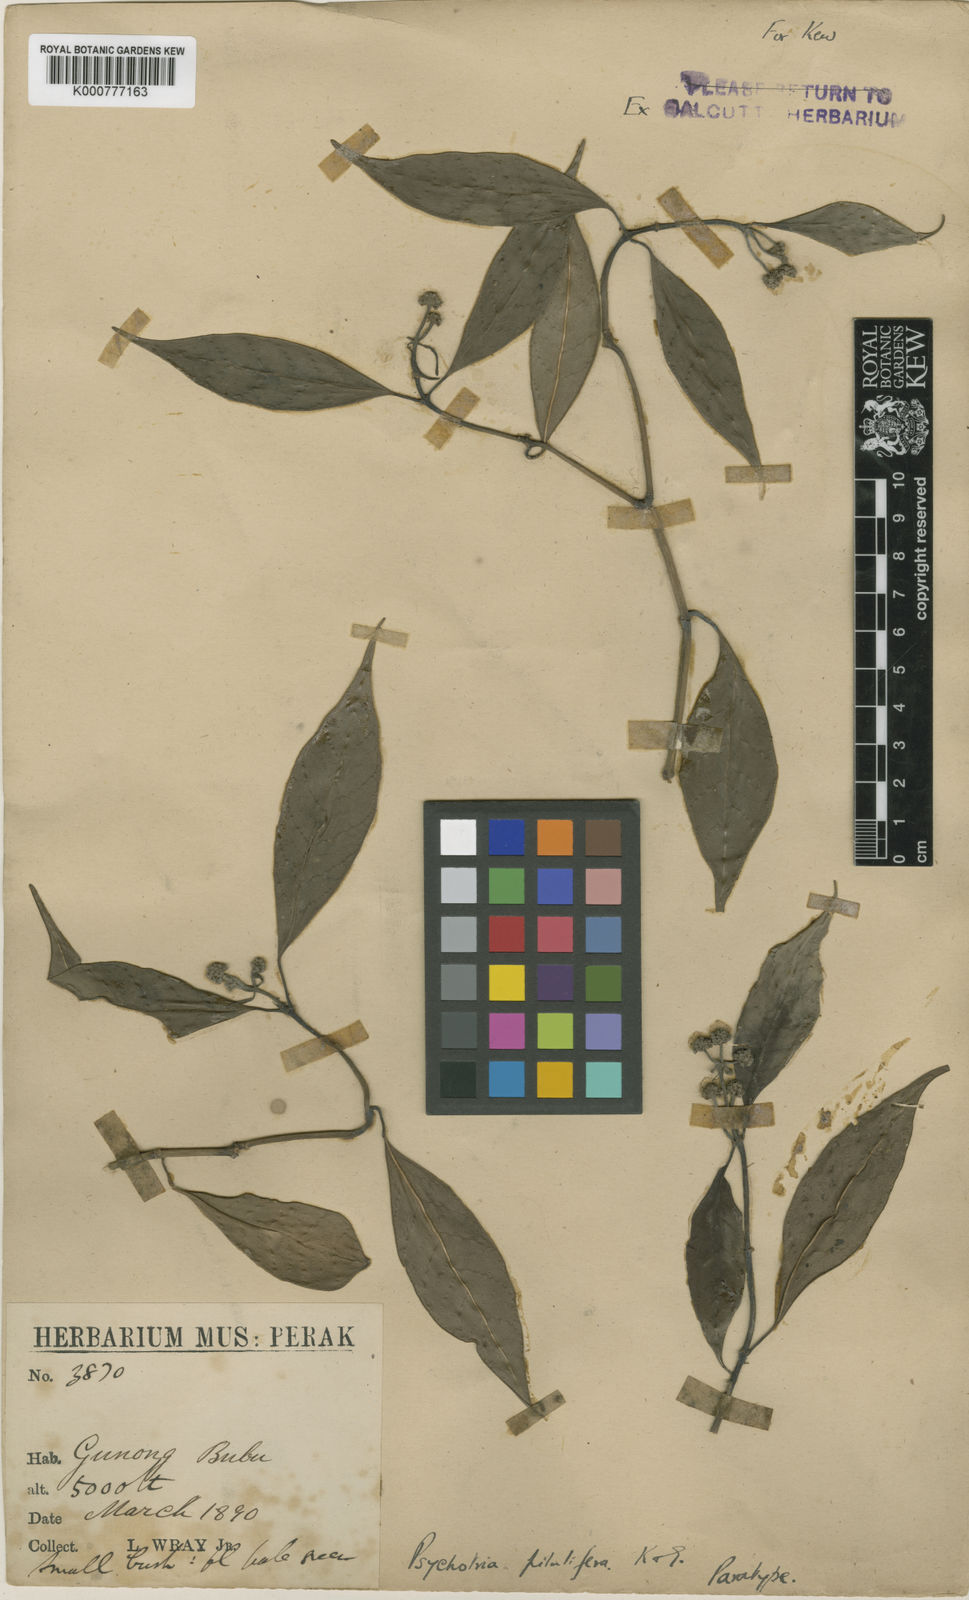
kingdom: Plantae
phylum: Tracheophyta
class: Magnoliopsida
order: Gentianales
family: Rubiaceae
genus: Psychotria
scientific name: Psychotria pilulifera
